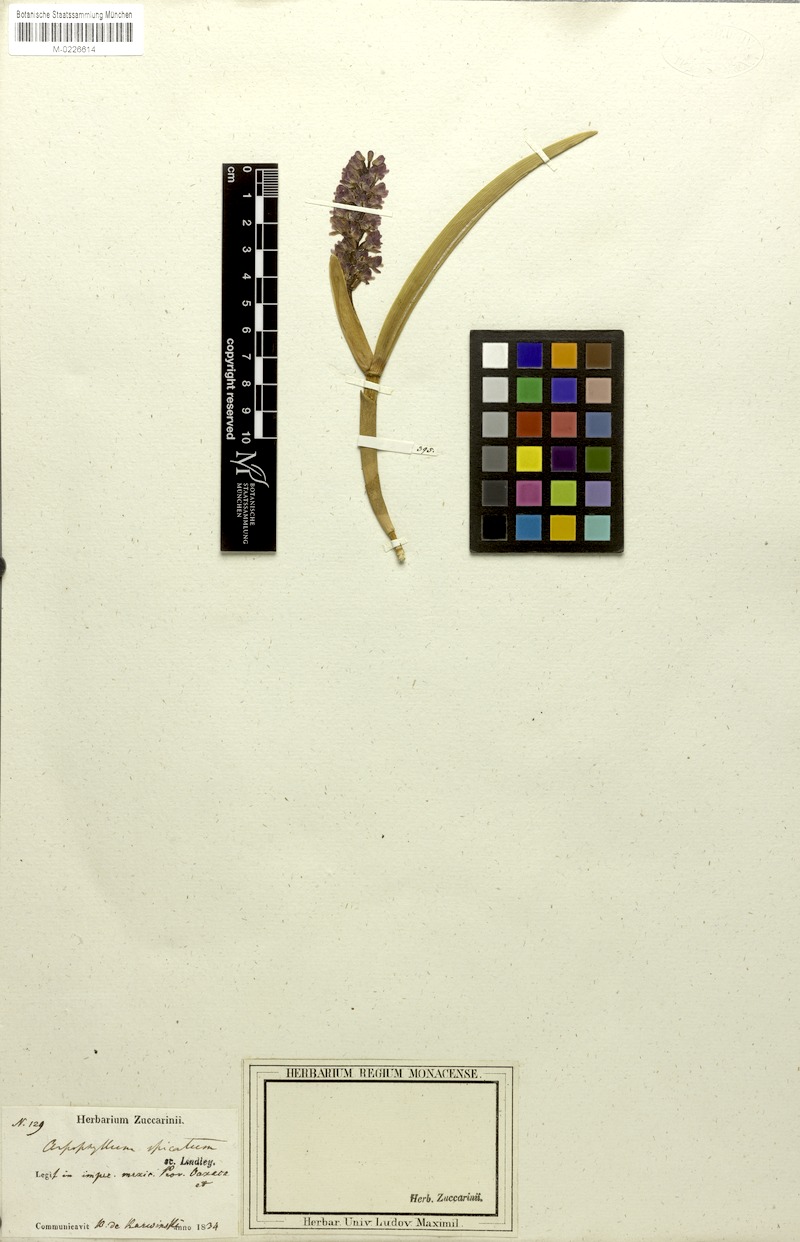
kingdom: Plantae
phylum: Tracheophyta
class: Liliopsida
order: Asparagales
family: Orchidaceae
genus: Arpophyllum
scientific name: Arpophyllum spicatum
